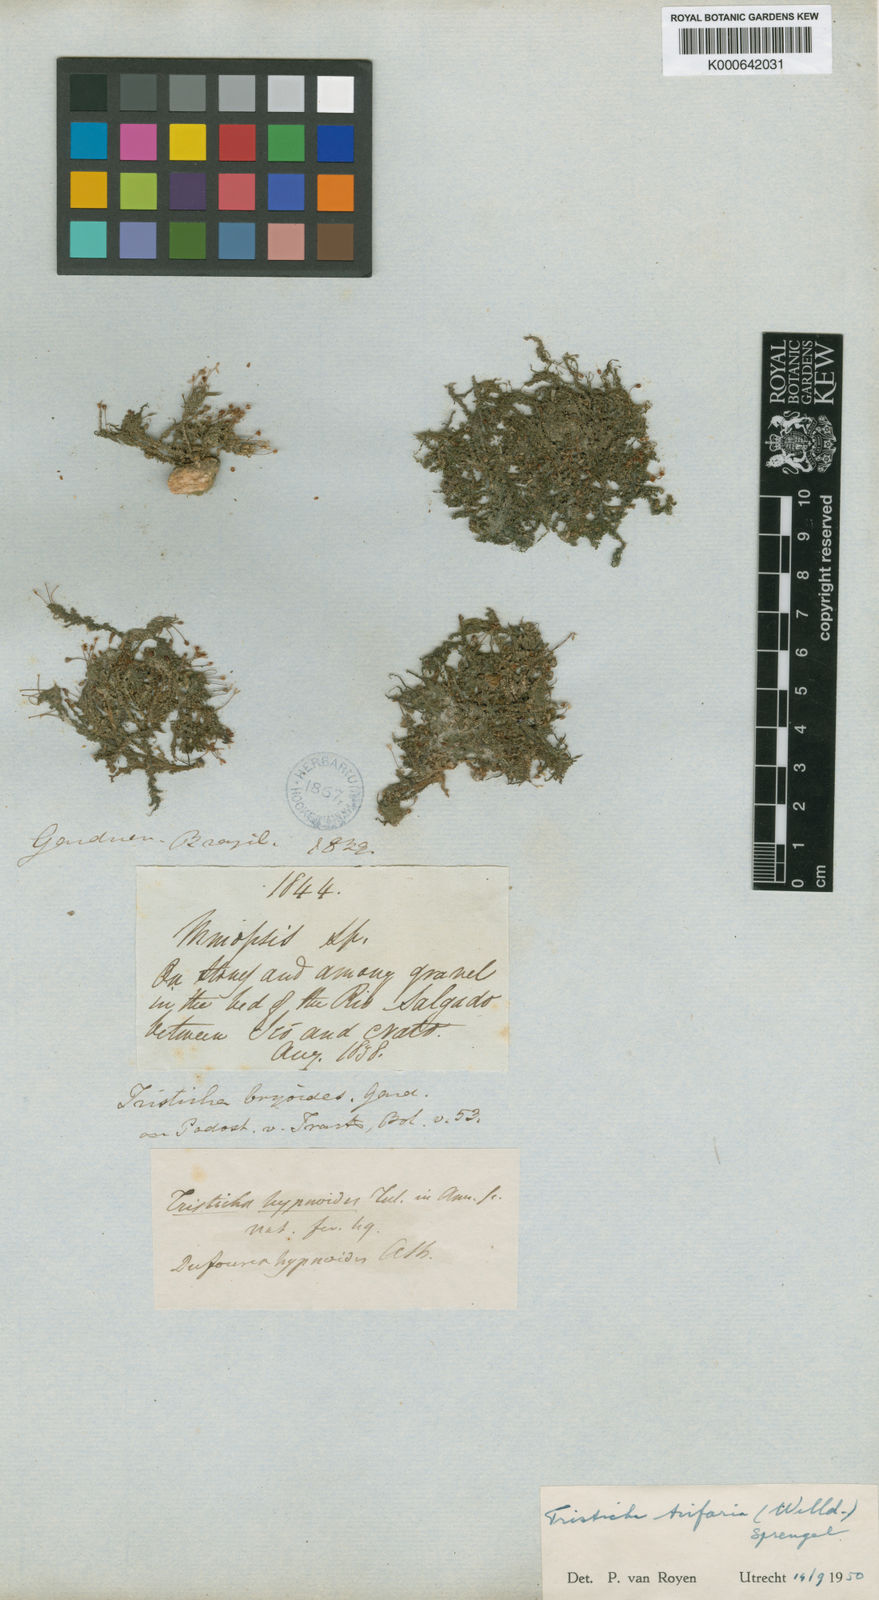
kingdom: Plantae
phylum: Tracheophyta
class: Magnoliopsida
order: Malpighiales
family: Podostemaceae
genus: Tristicha
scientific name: Tristicha trifaria
